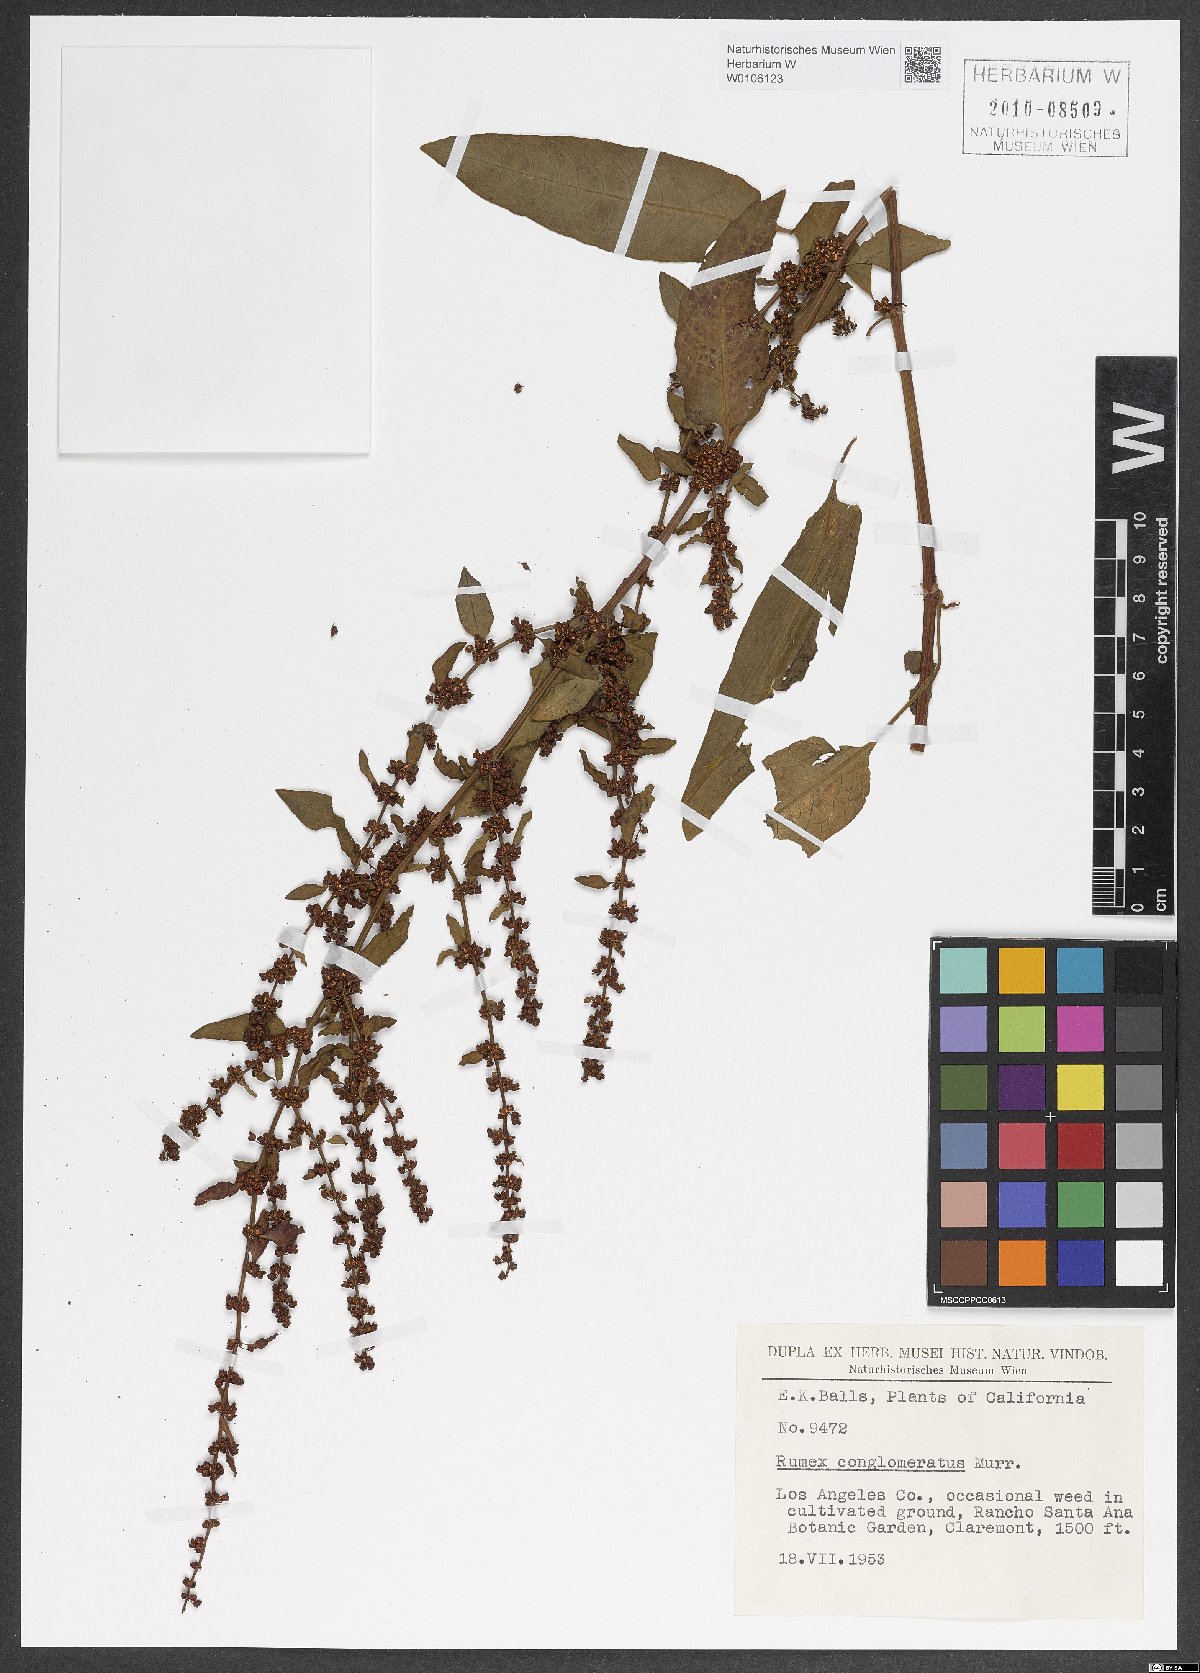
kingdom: Plantae
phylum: Tracheophyta
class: Magnoliopsida
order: Caryophyllales
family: Polygonaceae
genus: Rumex
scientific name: Rumex conglomeratus
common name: Clustered dock
